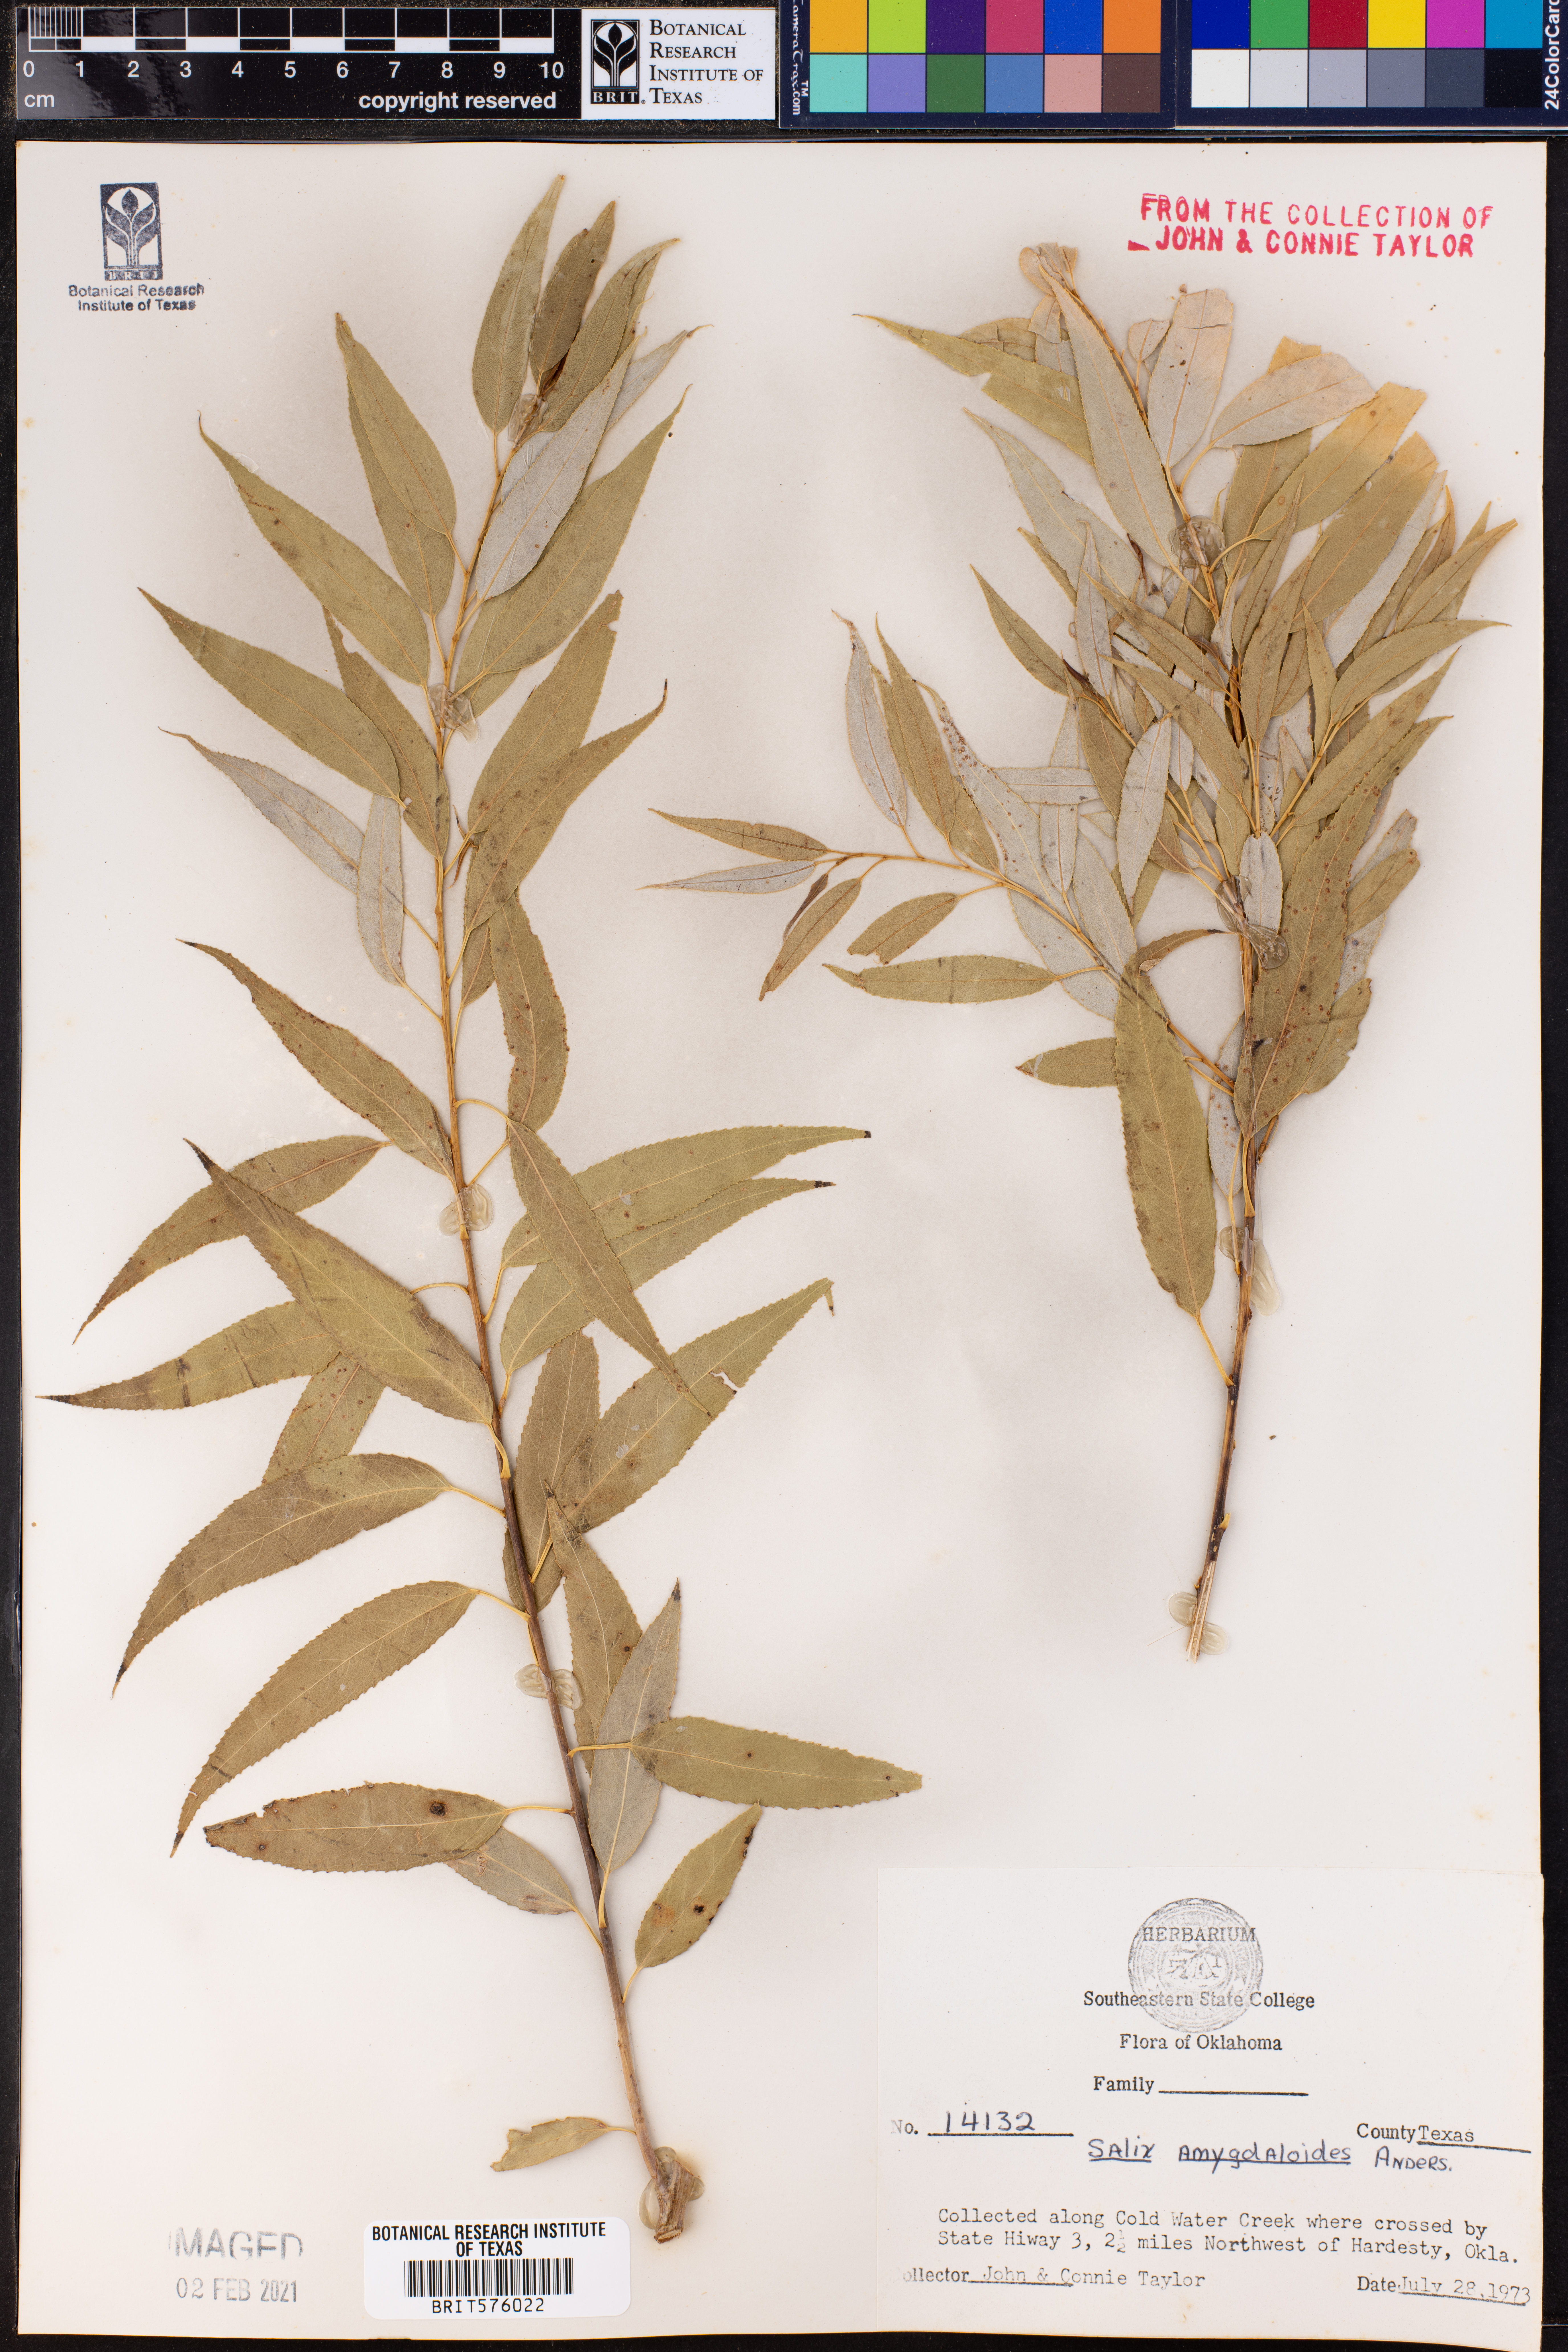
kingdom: Plantae
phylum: Tracheophyta
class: Magnoliopsida
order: Malpighiales
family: Salicaceae
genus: Salix
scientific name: Salix amygdaloides
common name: Peach leaf willow
